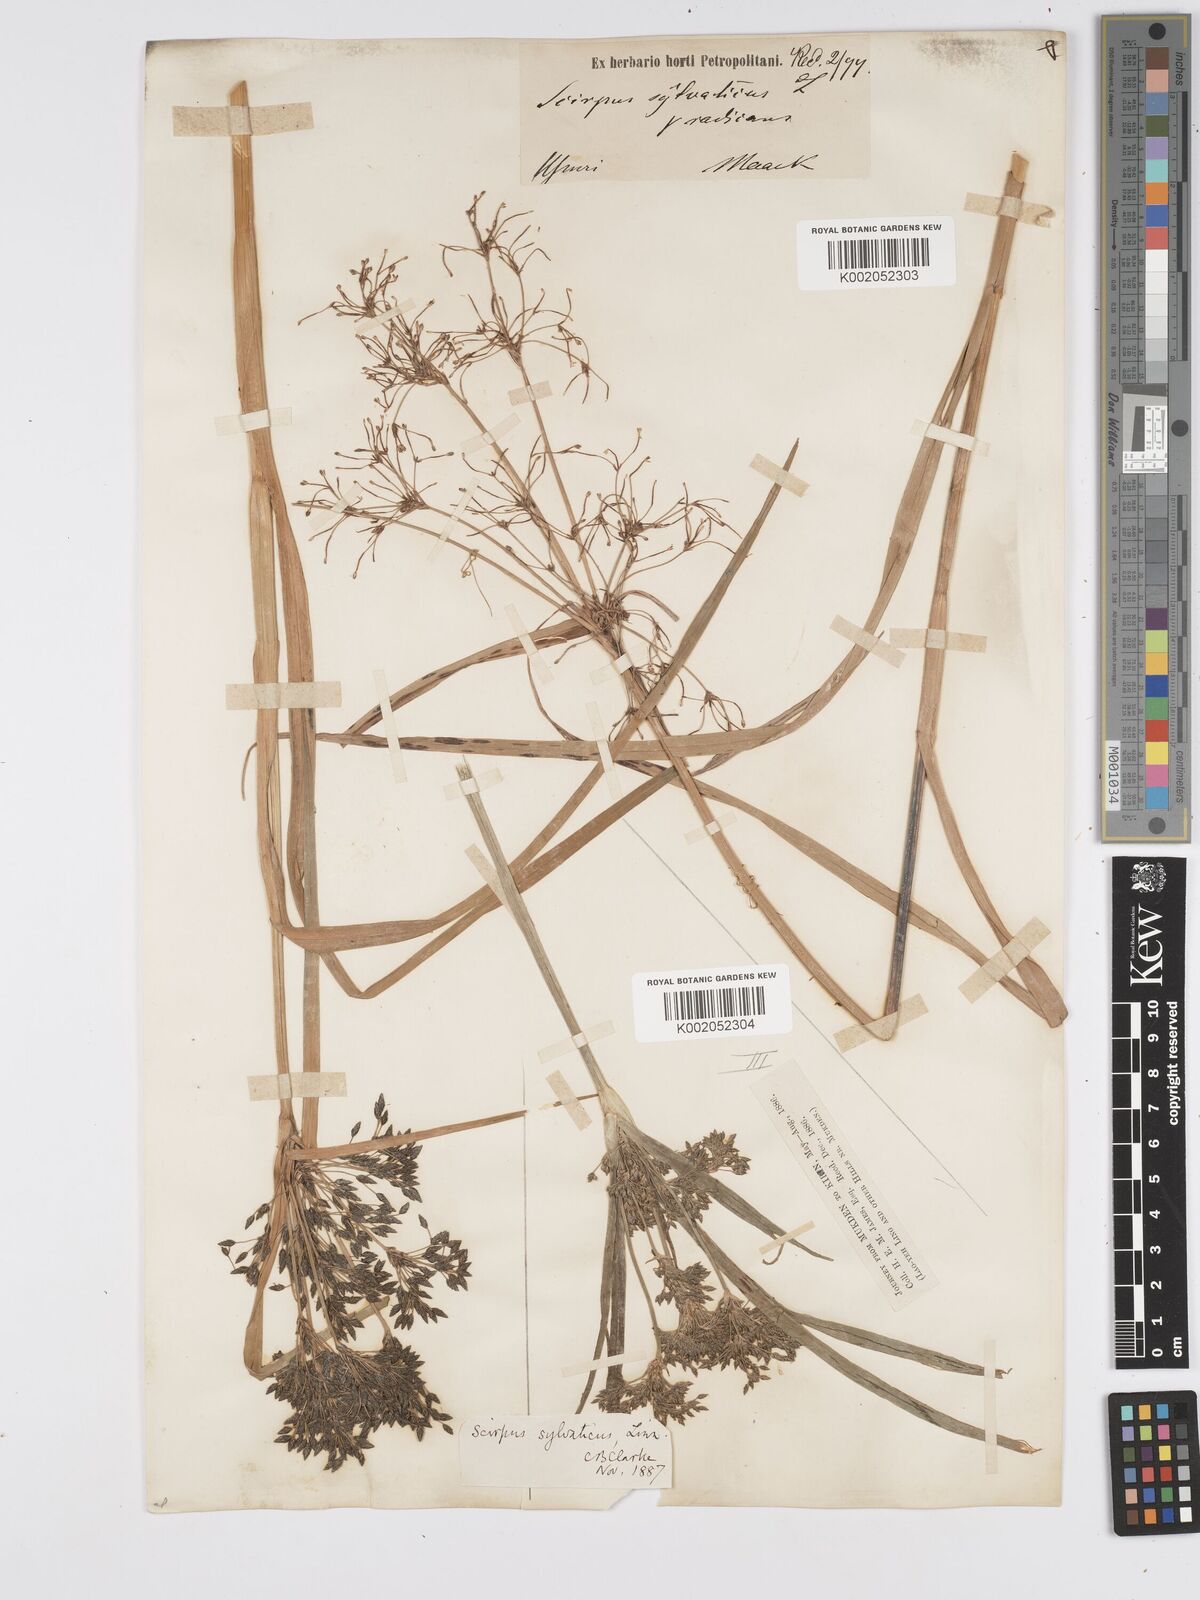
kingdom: Plantae
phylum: Tracheophyta
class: Liliopsida
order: Poales
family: Cyperaceae
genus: Scirpus
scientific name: Scirpus sylvaticus
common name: Wood club-rush
